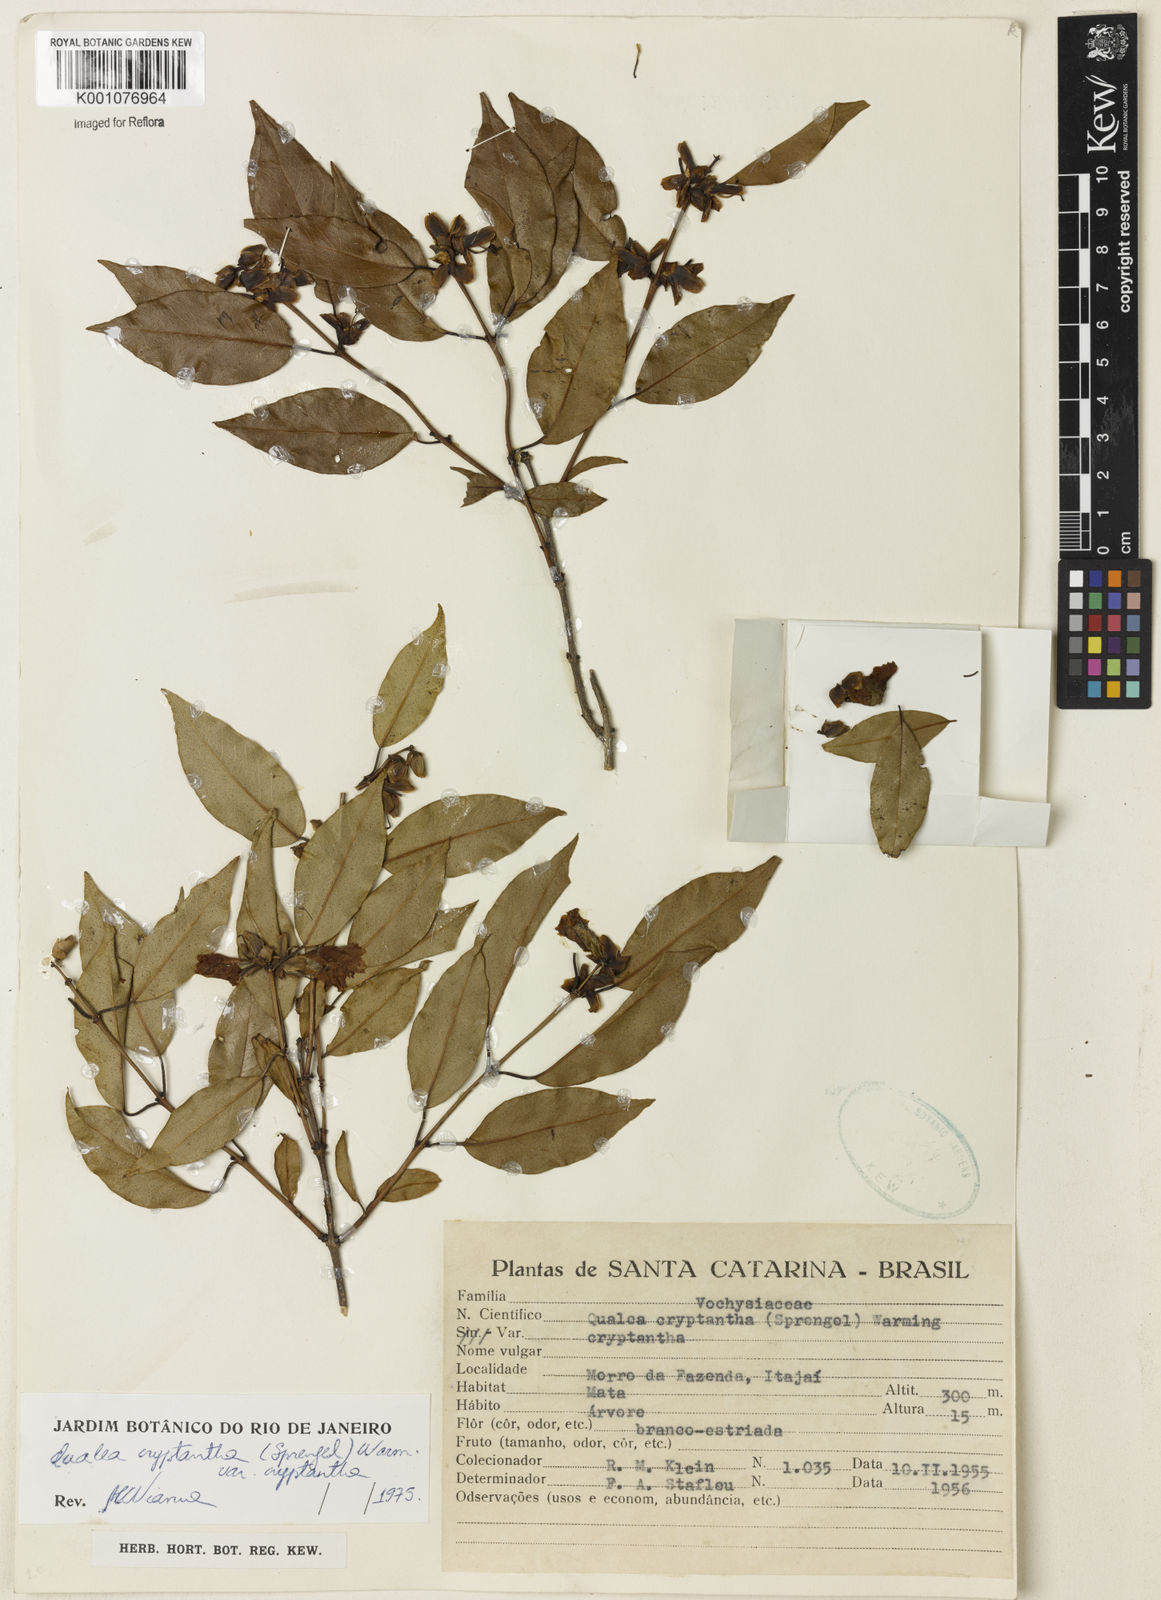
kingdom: Plantae
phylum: Tracheophyta
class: Magnoliopsida
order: Myrtales
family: Vochysiaceae
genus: Qualea
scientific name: Qualea cryptantha
